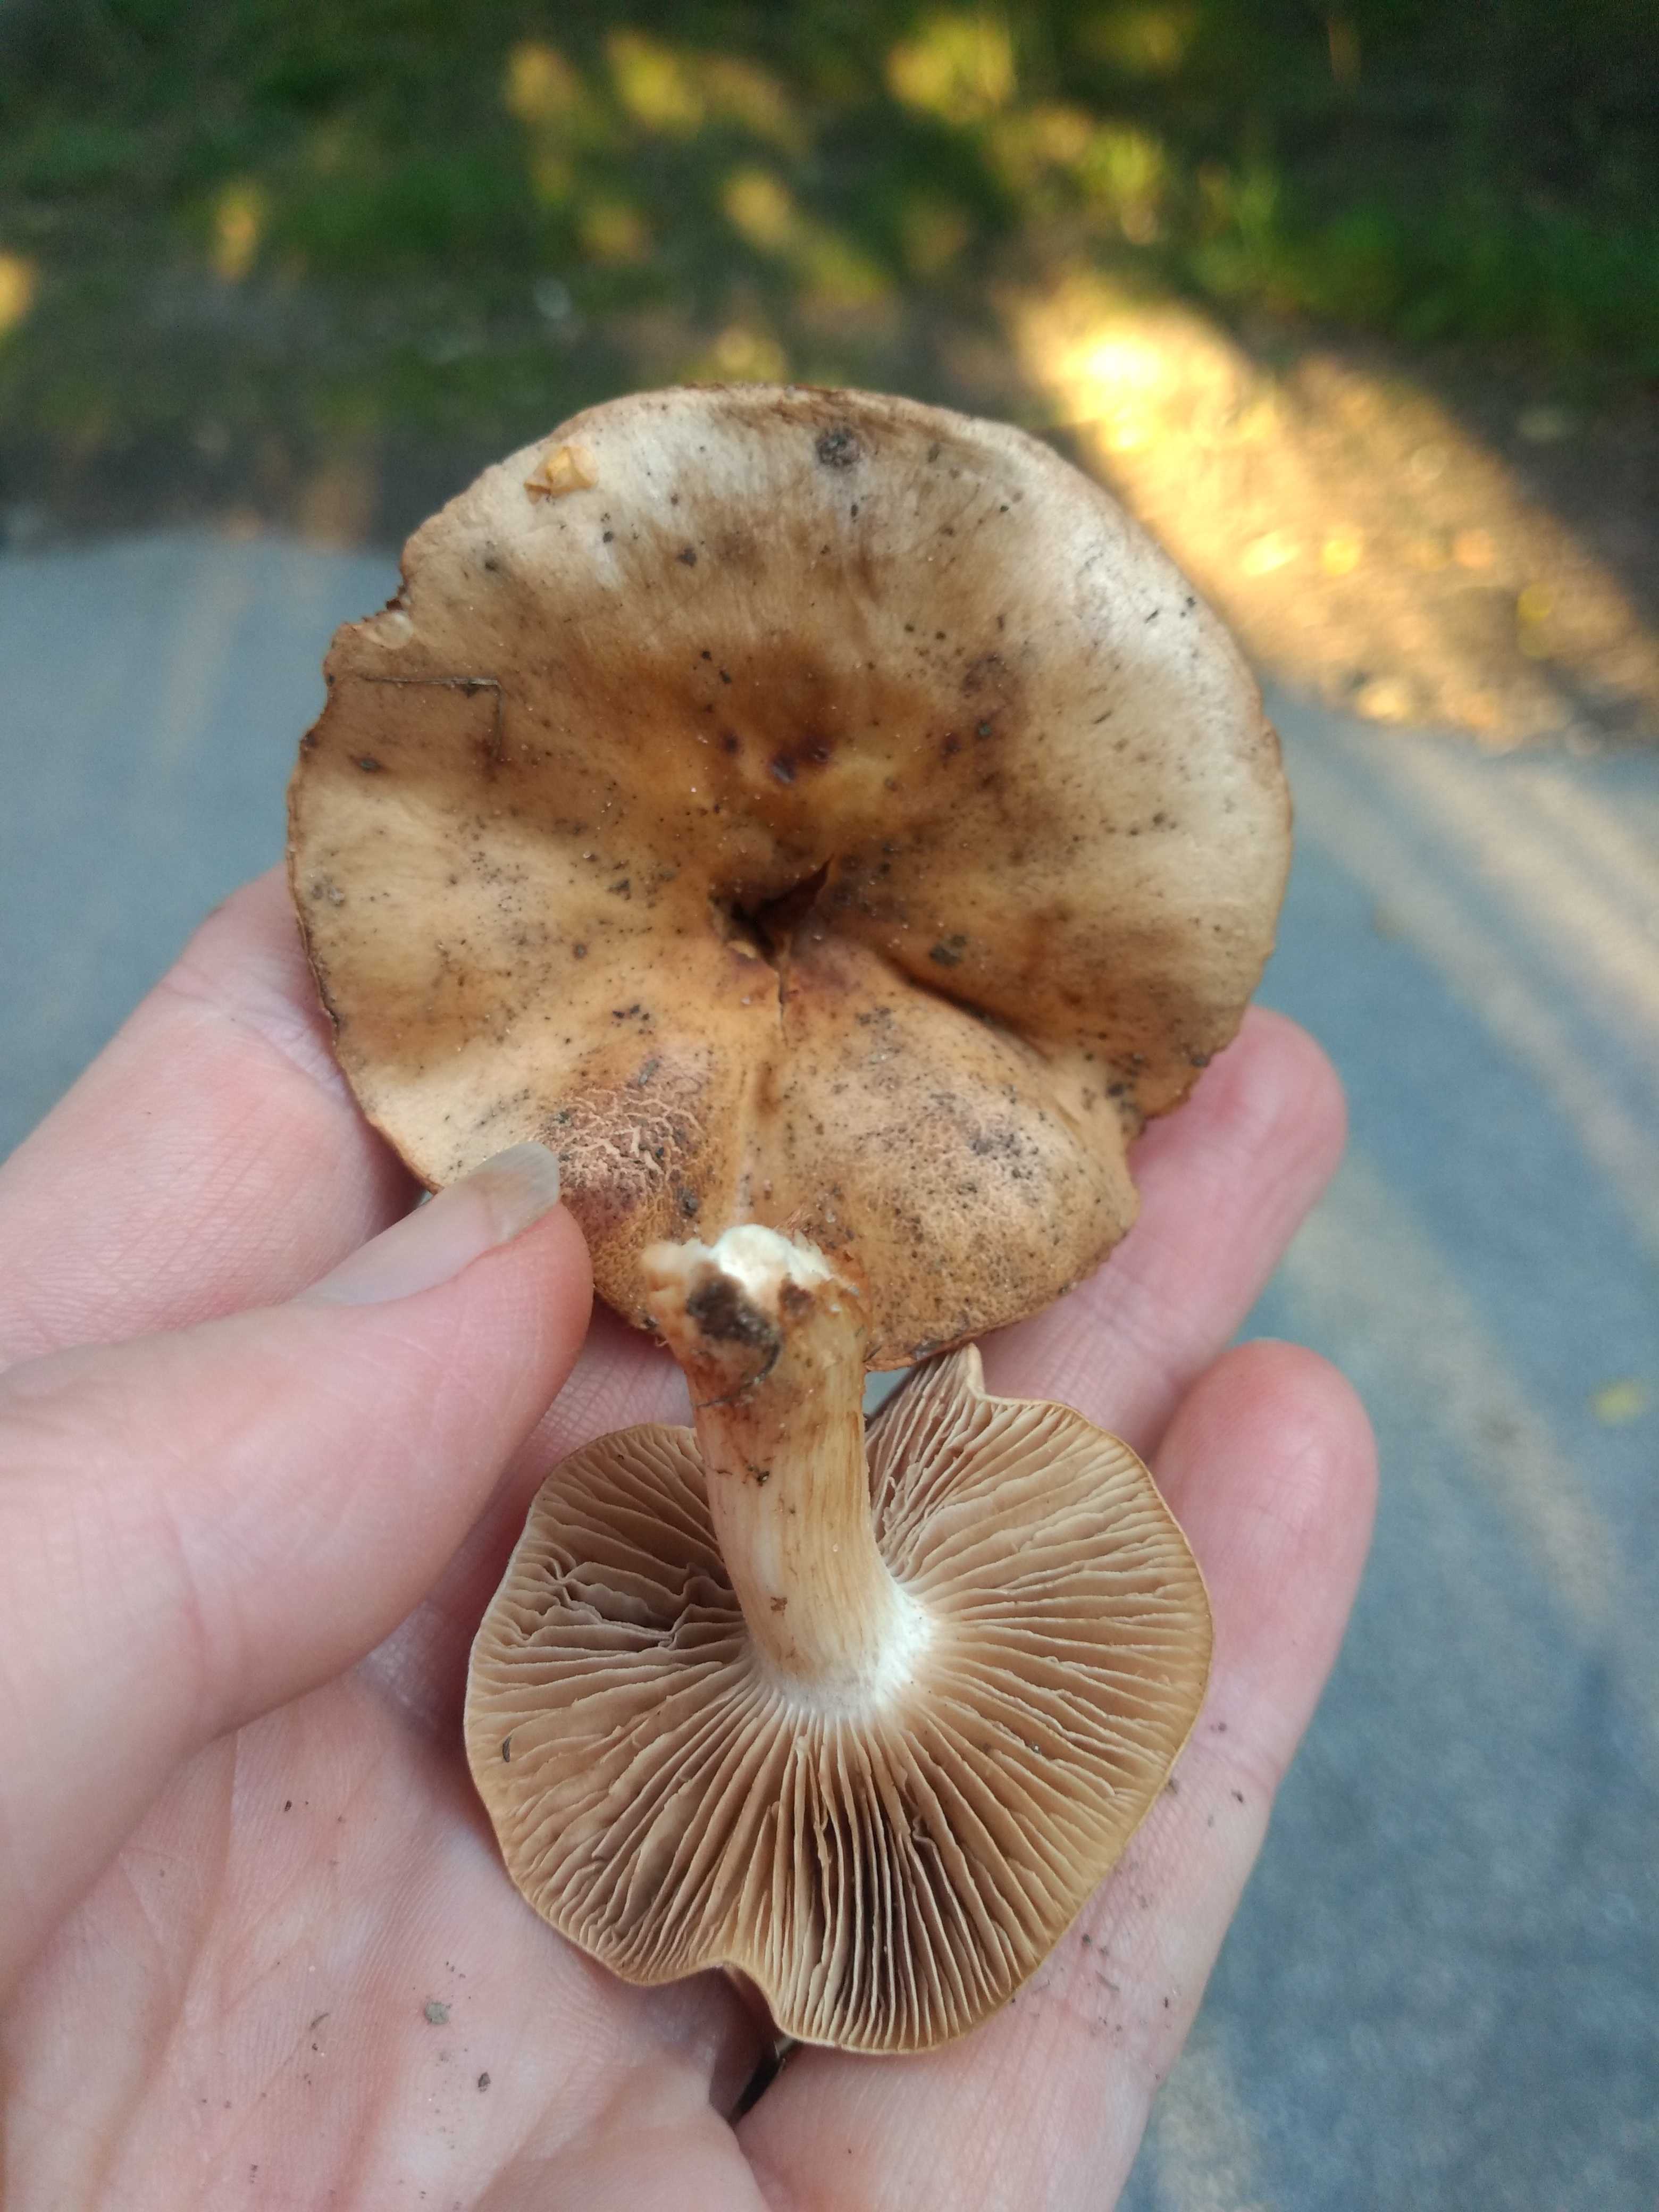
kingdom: Fungi
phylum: Basidiomycota
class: Agaricomycetes
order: Agaricales
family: Hymenogastraceae
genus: Hebeloma
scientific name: Hebeloma sacchariolens
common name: sødtduftende tåreblad
